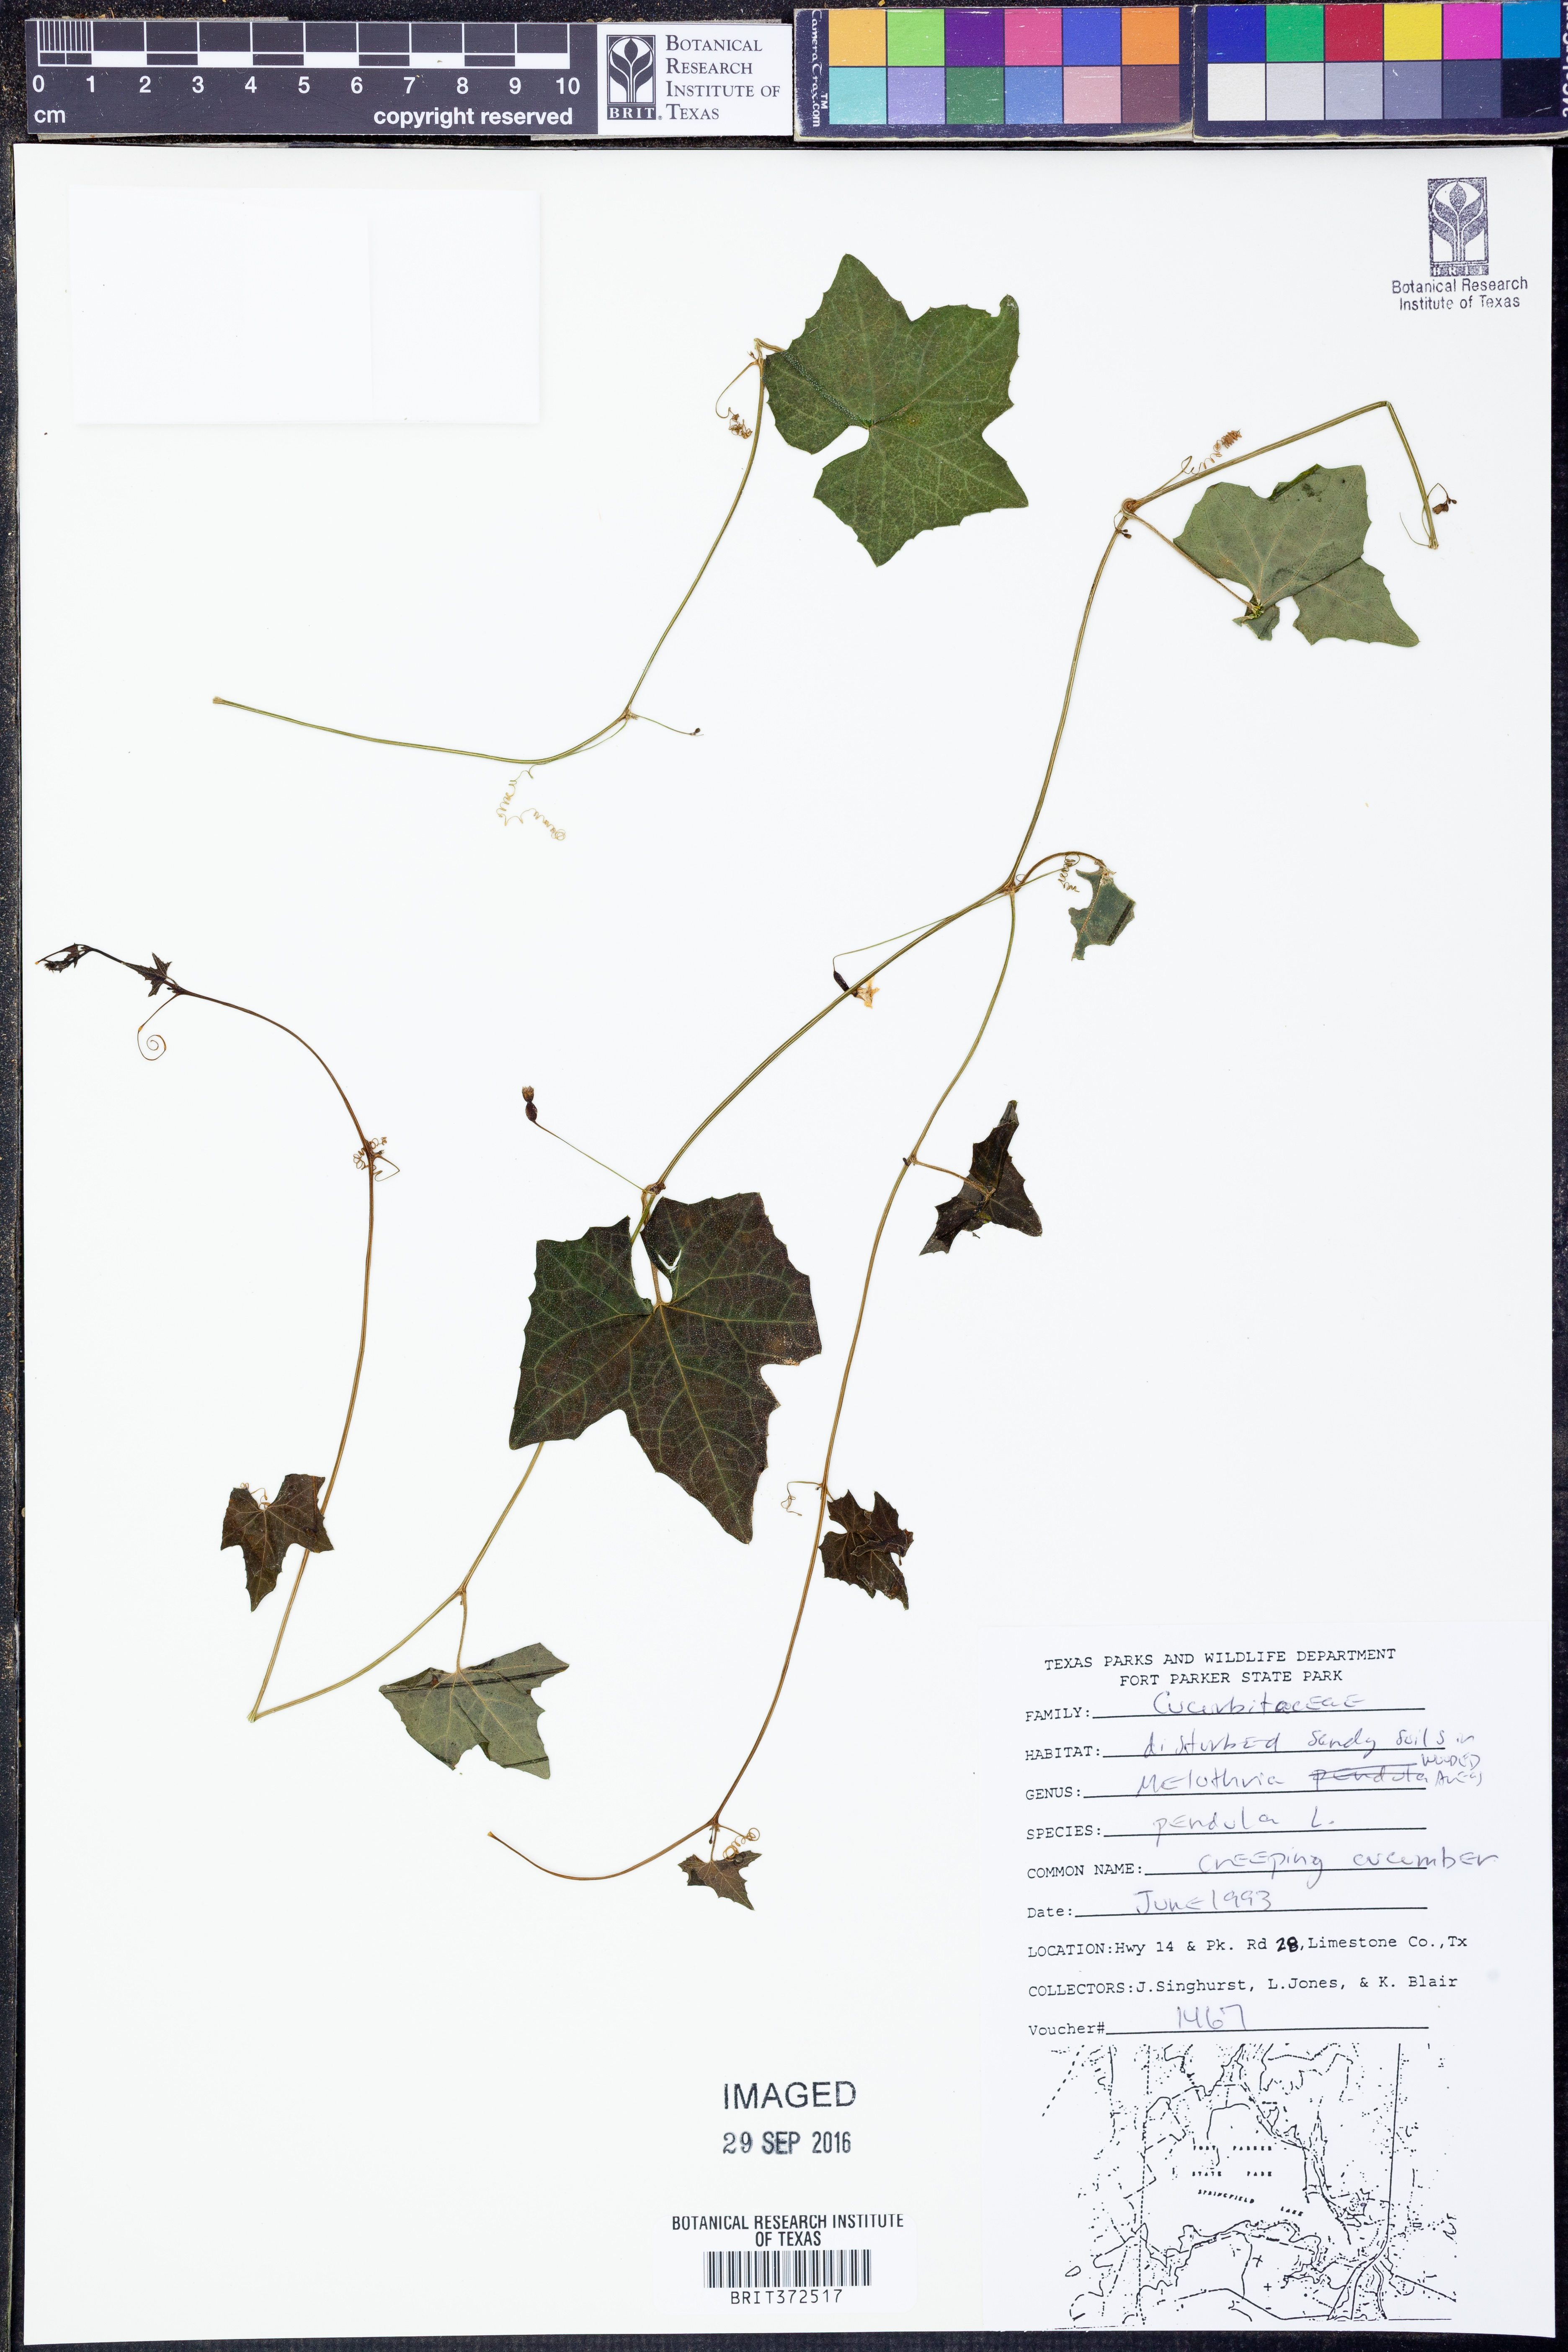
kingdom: Plantae
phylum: Tracheophyta
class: Magnoliopsida
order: Cucurbitales
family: Cucurbitaceae
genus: Melothria
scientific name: Melothria pendula
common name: Creeping-cucumber
